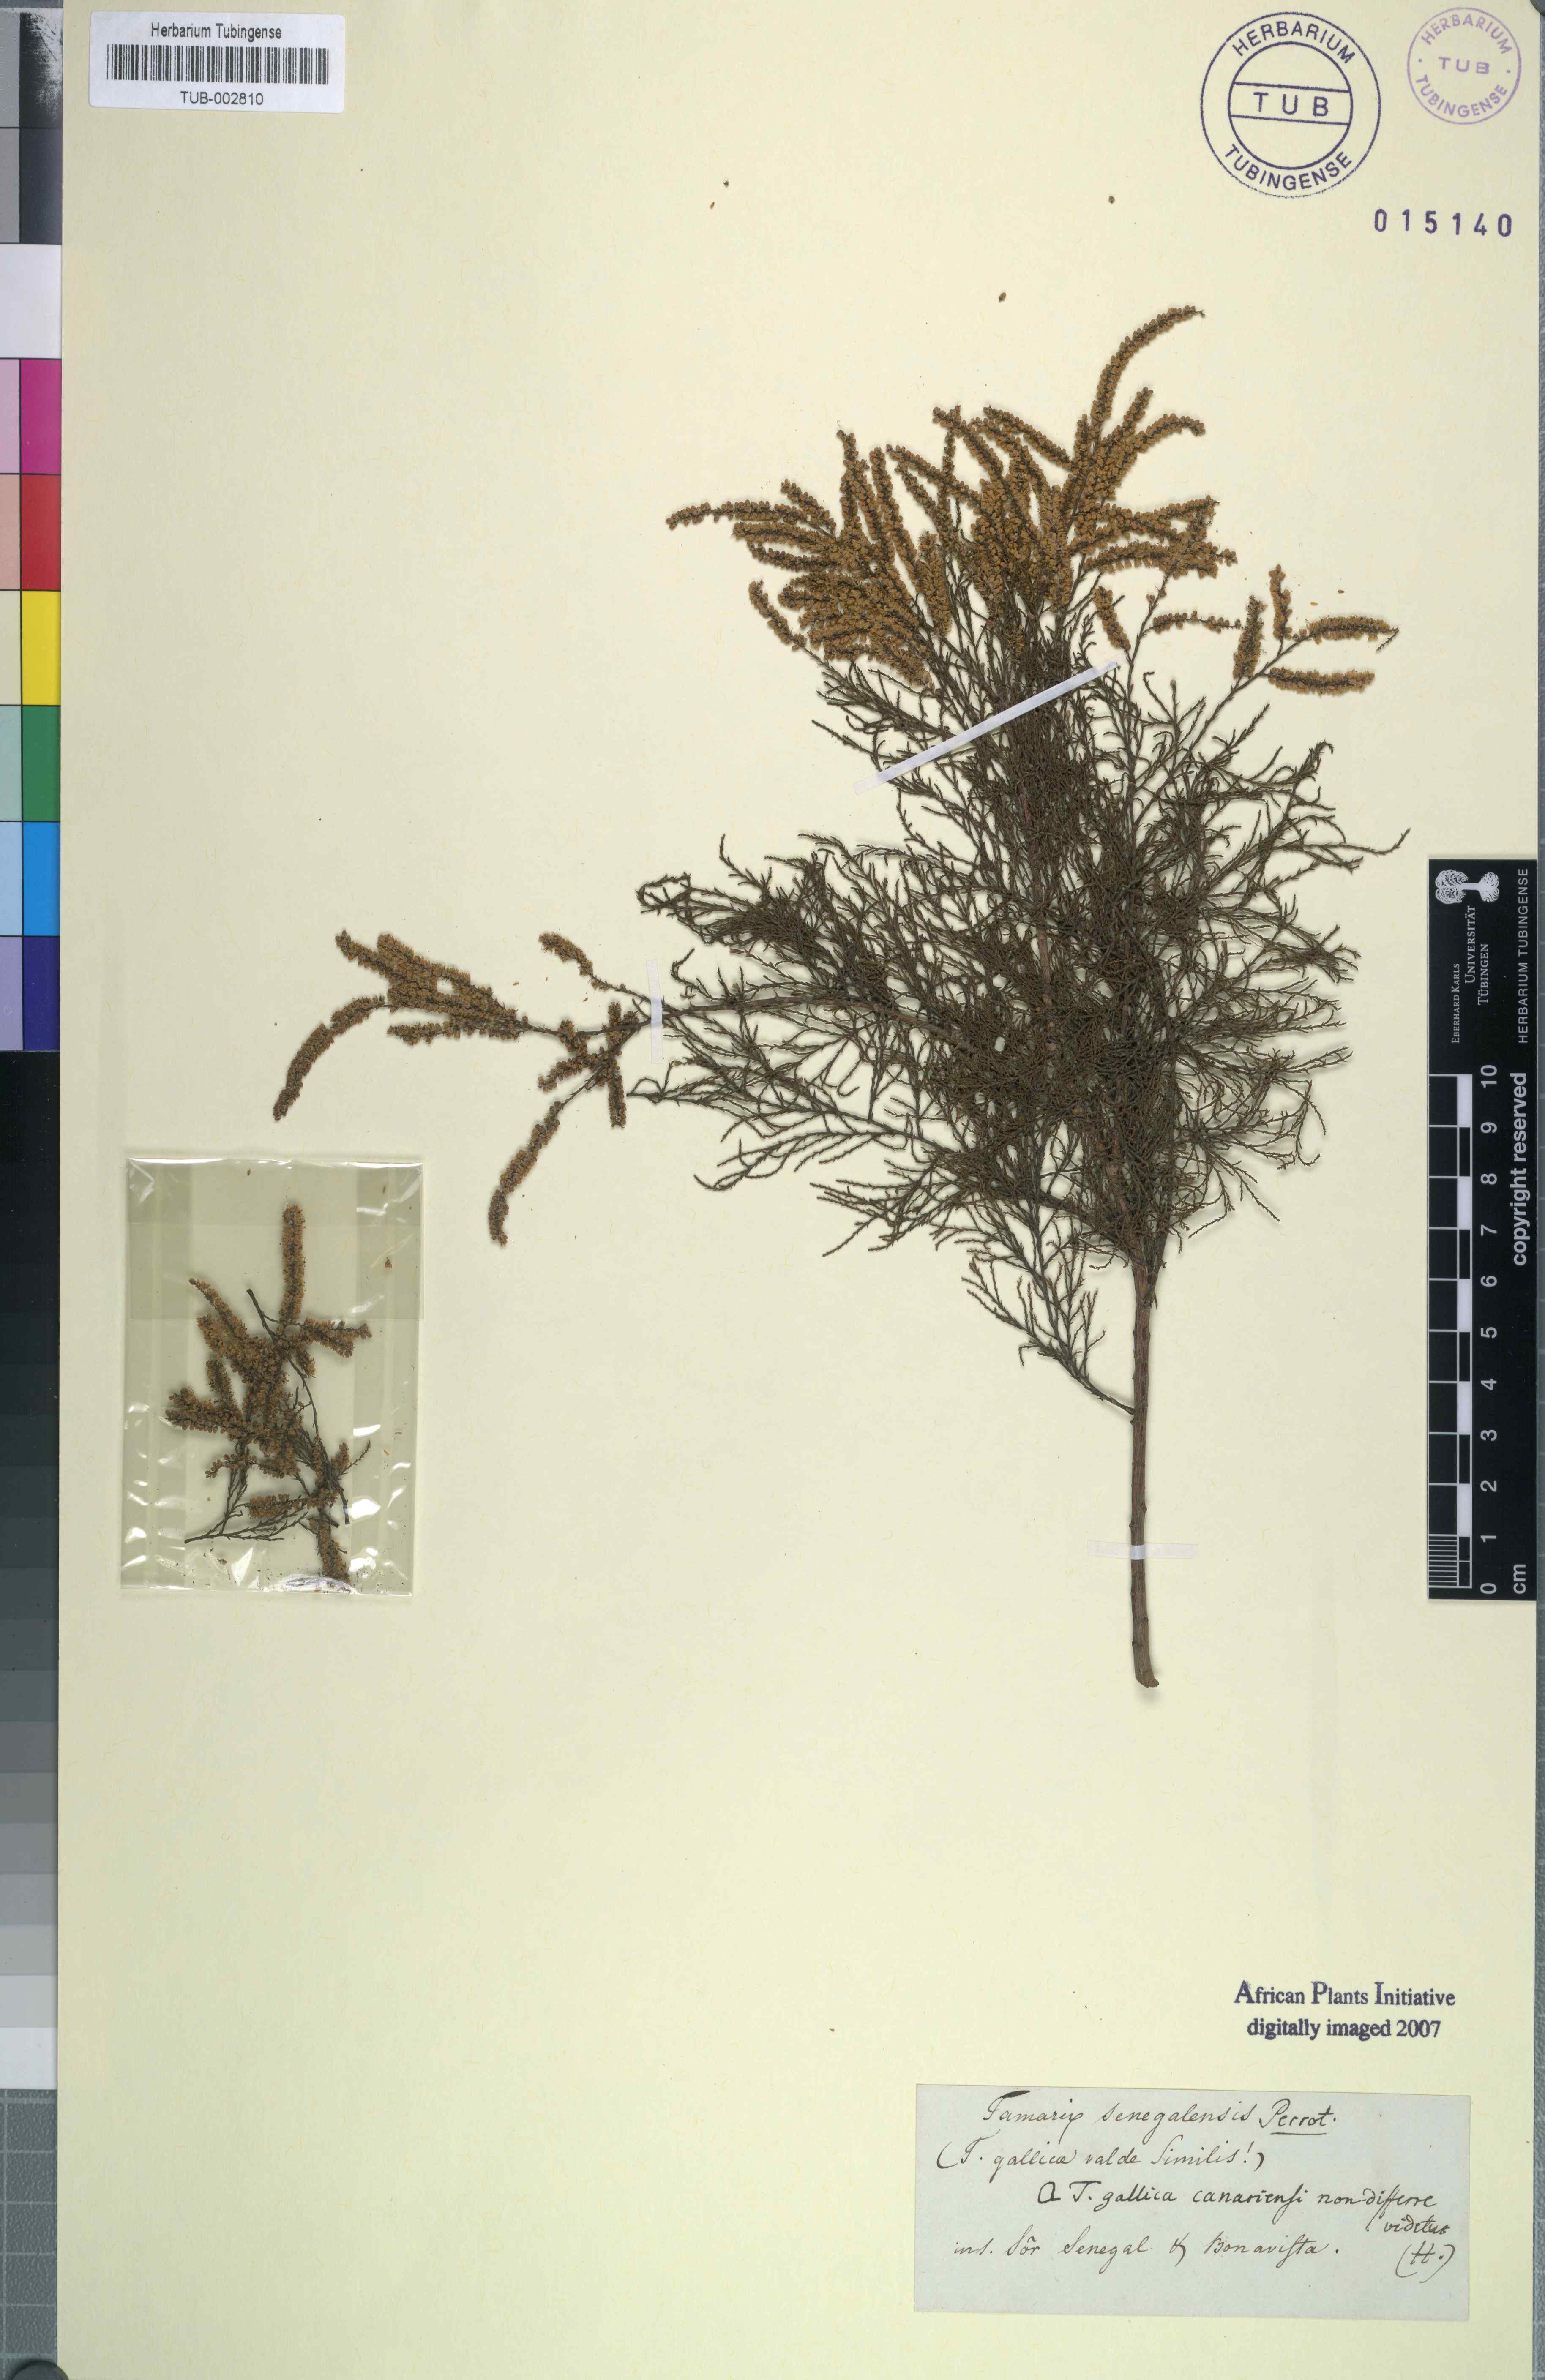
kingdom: Plantae
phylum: Tracheophyta
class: Magnoliopsida
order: Caryophyllales
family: Tamaricaceae
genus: Tamarix
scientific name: Tamarix senegalensis
